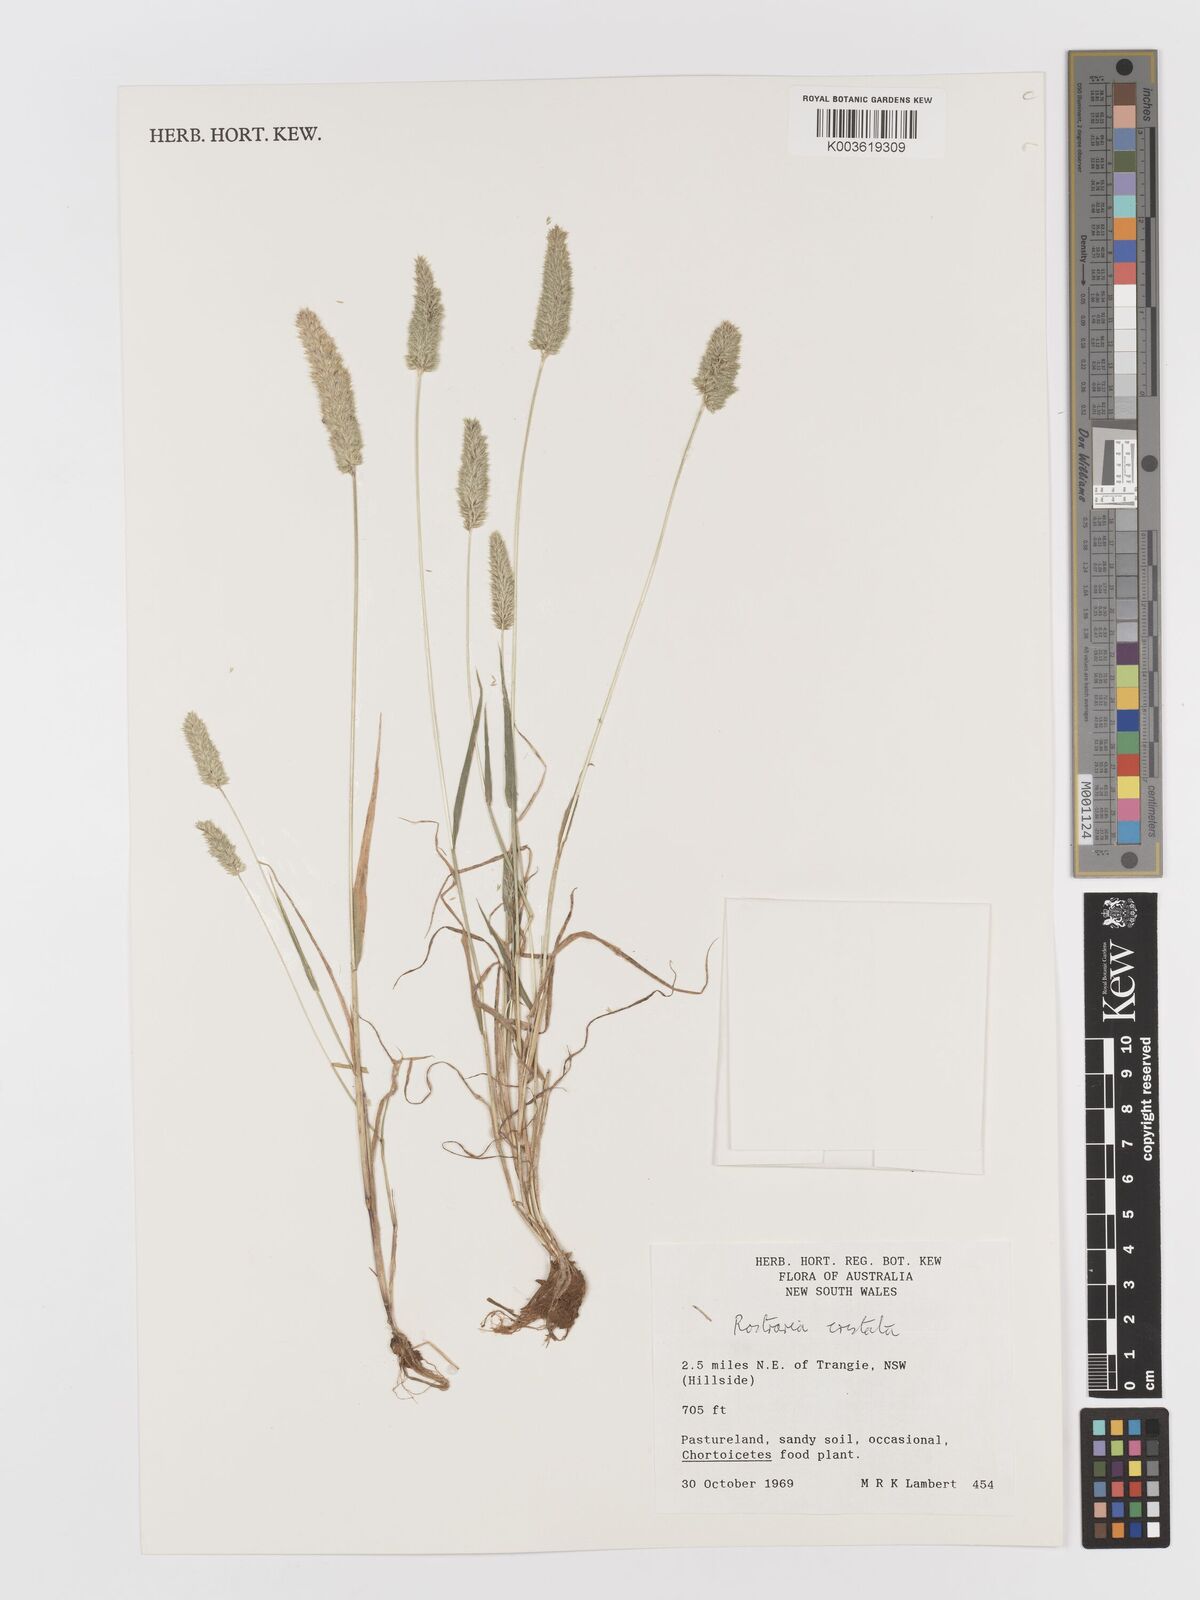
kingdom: Plantae
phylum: Tracheophyta
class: Liliopsida
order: Poales
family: Poaceae
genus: Rostraria
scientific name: Rostraria cristata
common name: Mediterranean hair-grass
